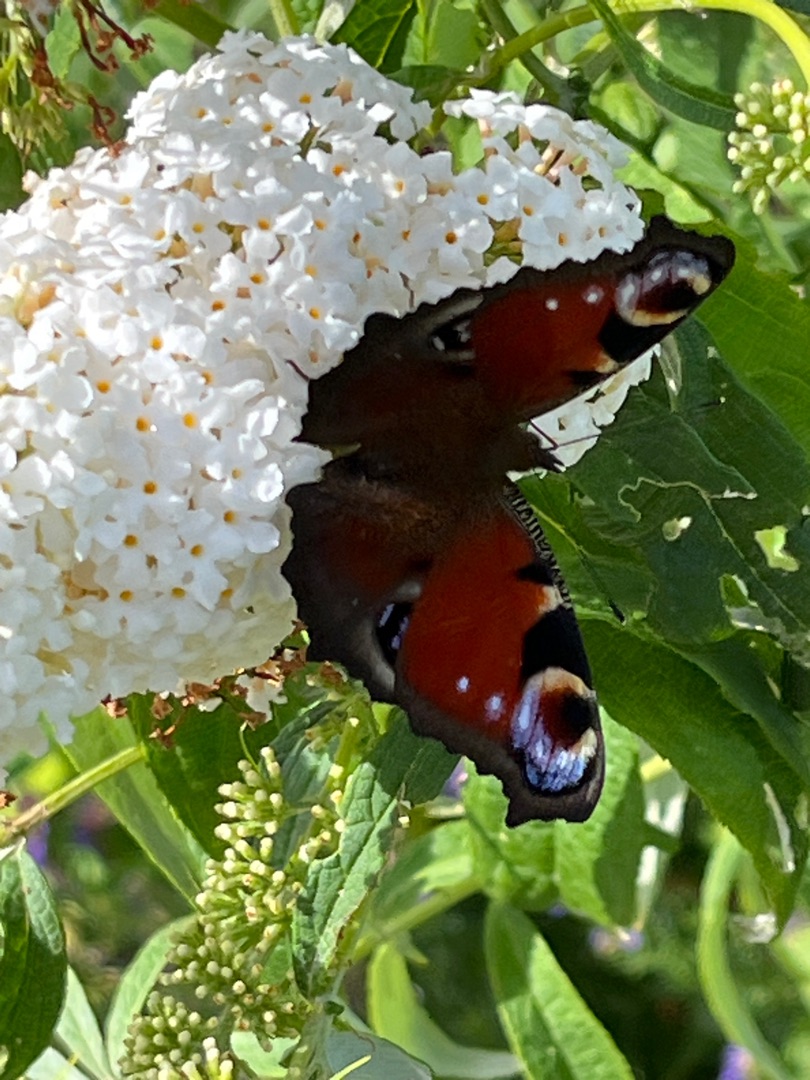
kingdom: Animalia
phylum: Arthropoda
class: Insecta
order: Lepidoptera
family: Nymphalidae
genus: Aglais
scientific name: Aglais io
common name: Dagpåfugleøje
